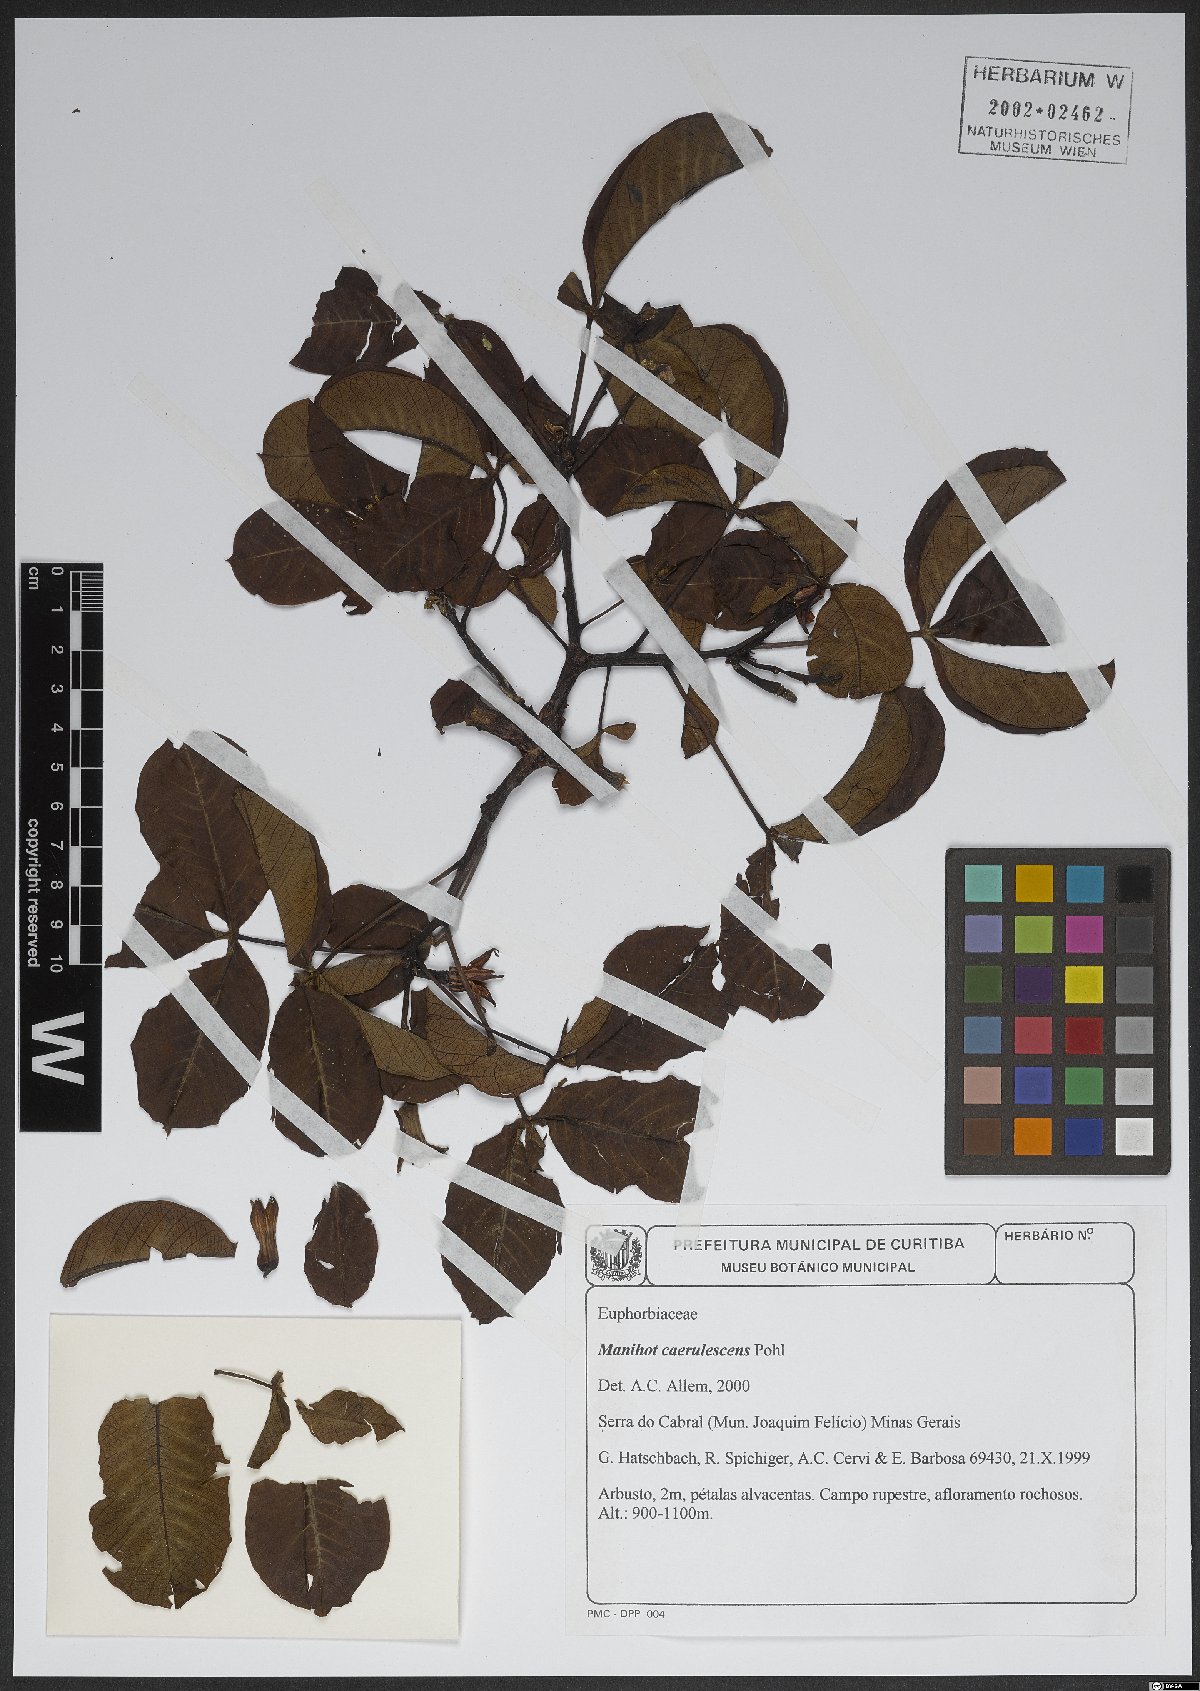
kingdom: Plantae
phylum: Tracheophyta
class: Magnoliopsida
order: Malpighiales
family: Euphorbiaceae
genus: Manihot
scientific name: Manihot caerulescens
